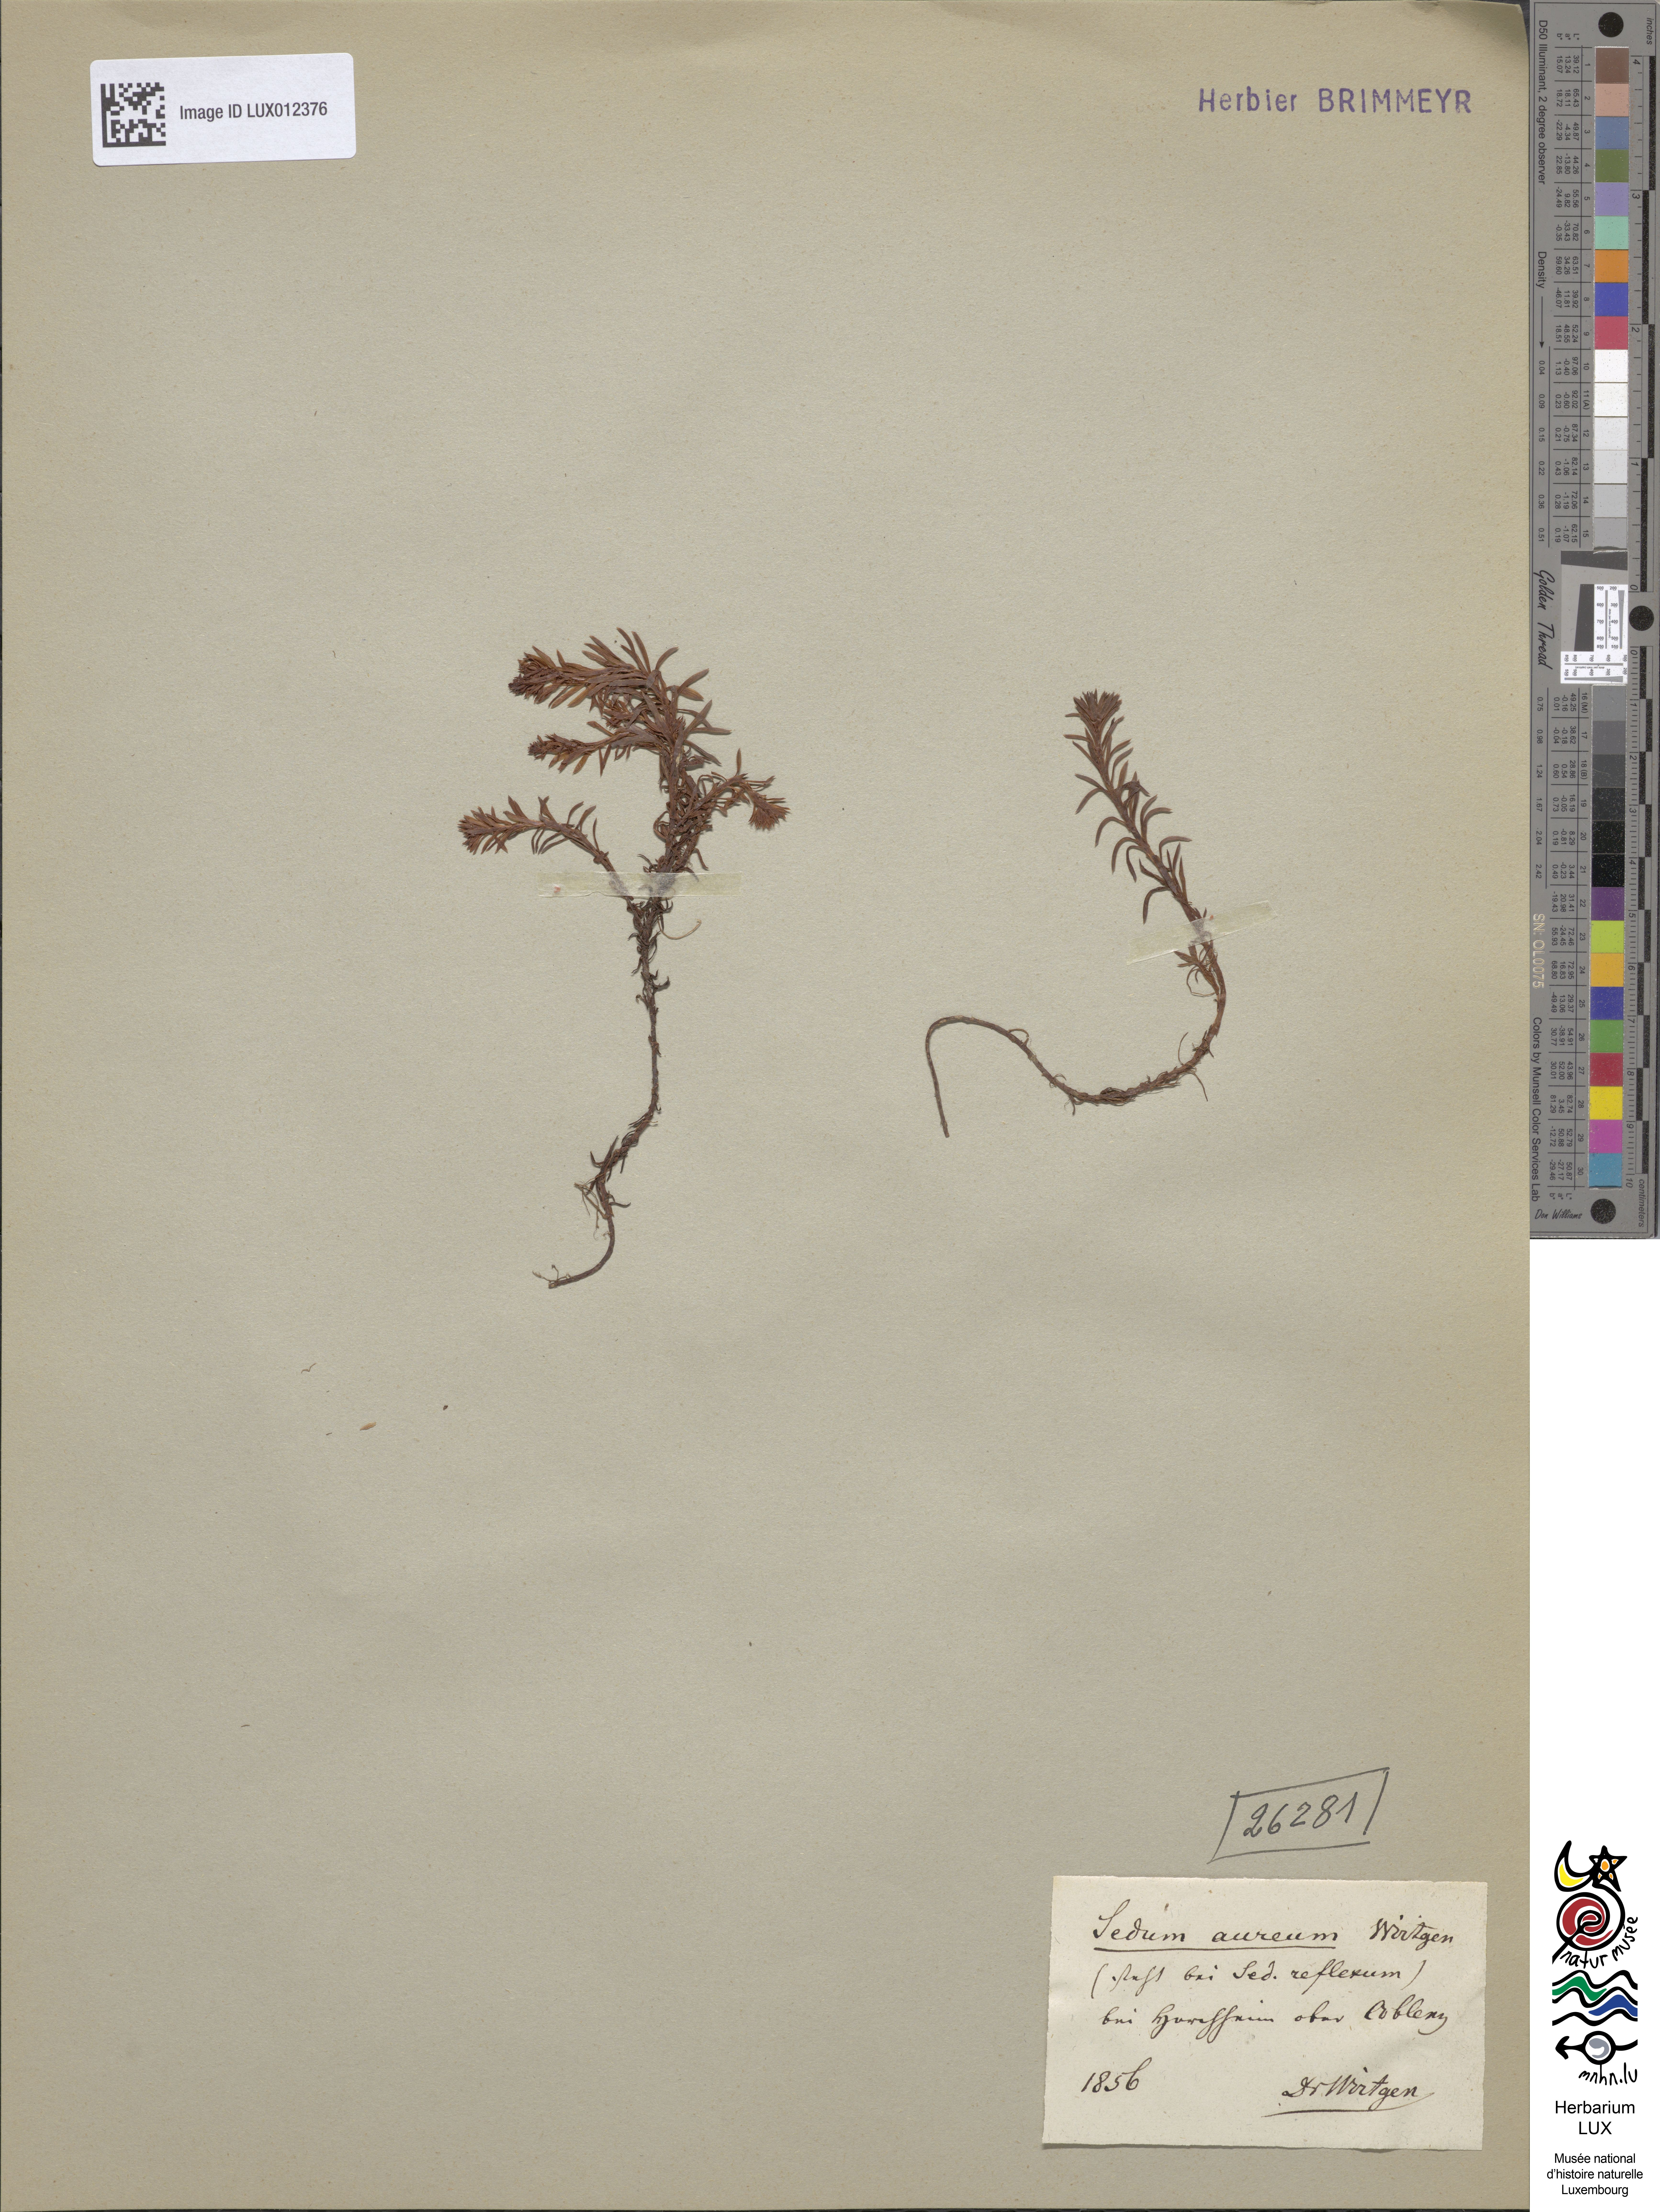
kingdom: Plantae
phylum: Tracheophyta
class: Magnoliopsida
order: Saxifragales
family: Crassulaceae
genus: Petrosedum
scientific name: Petrosedum forsterianum
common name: Forster's stonecrop
